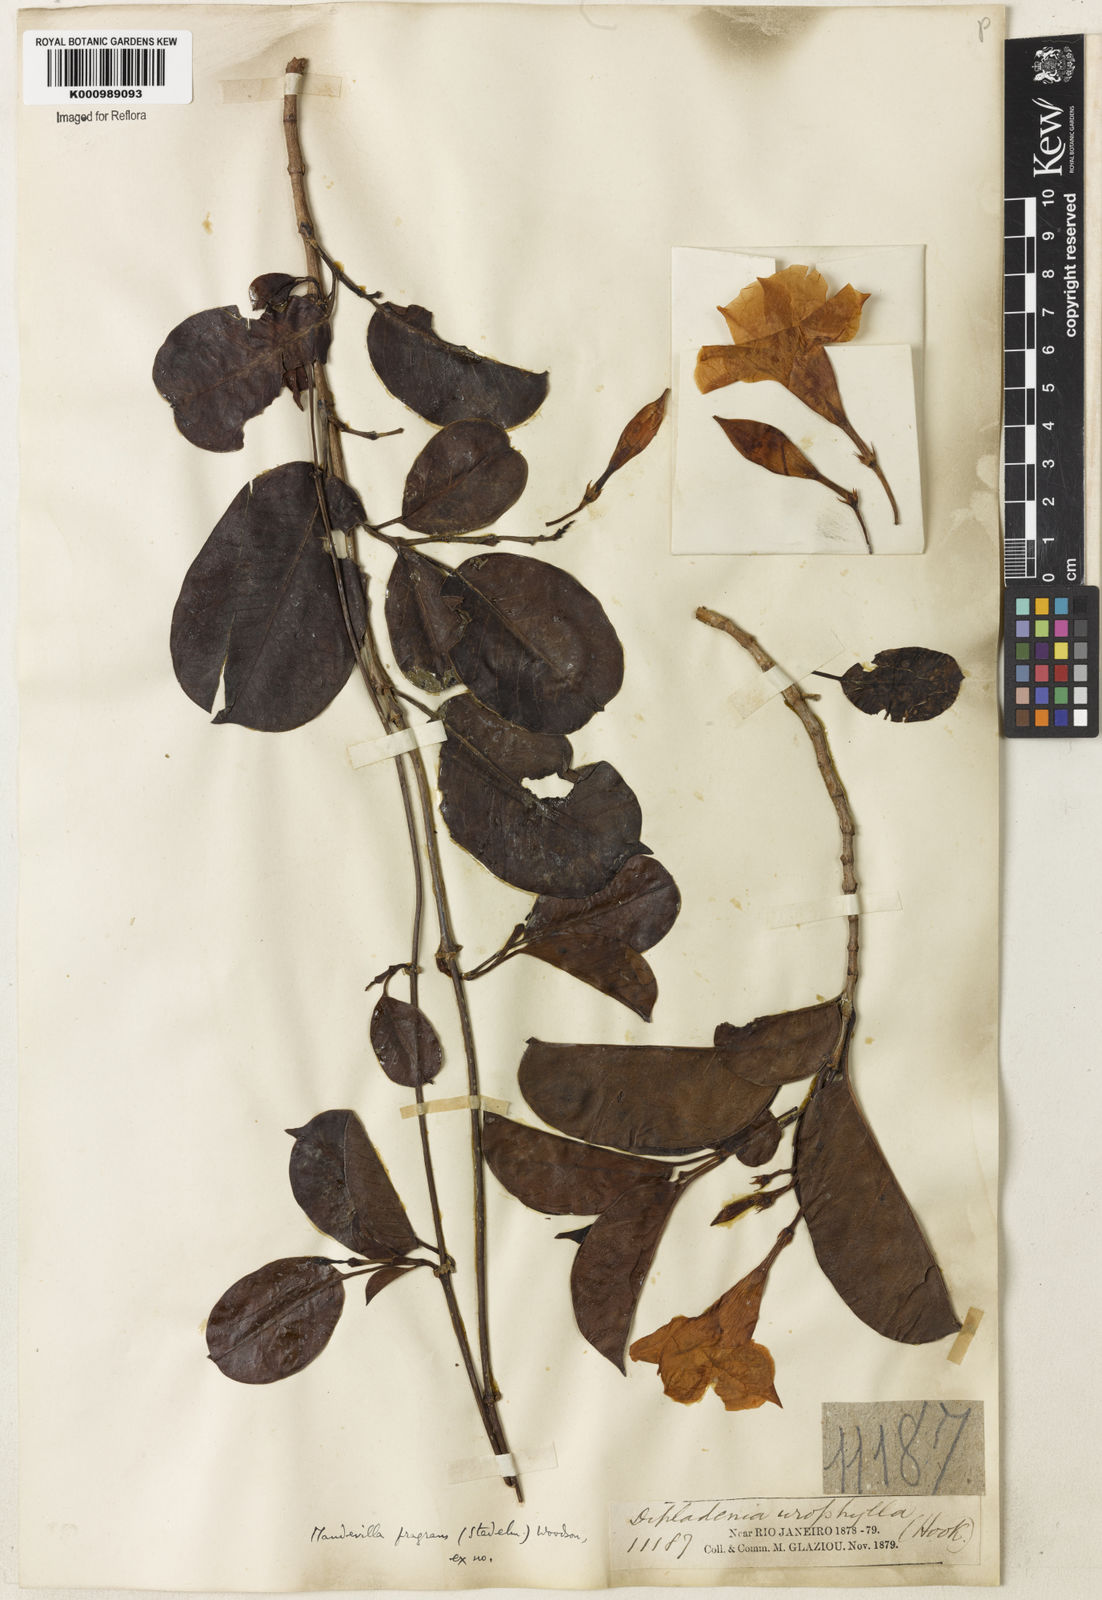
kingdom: Plantae
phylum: Tracheophyta
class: Magnoliopsida
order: Gentianales
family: Apocynaceae
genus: Mandevilla
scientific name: Mandevilla fragrans
